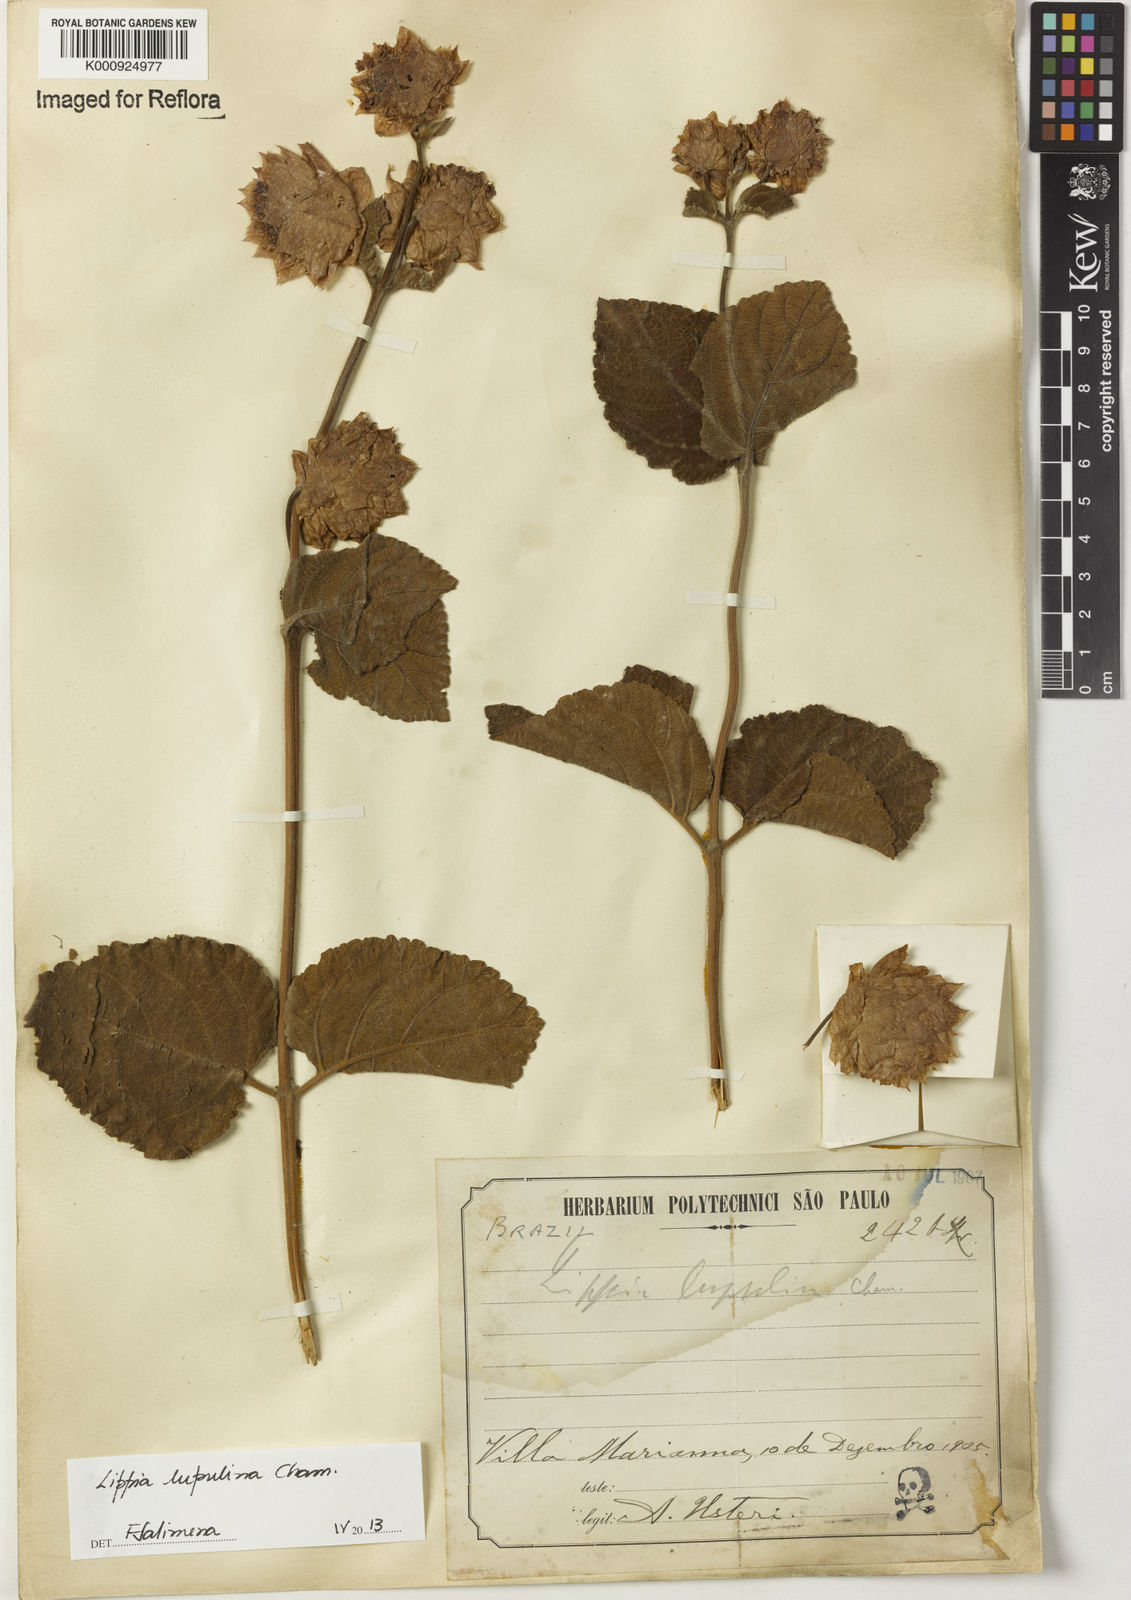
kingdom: Plantae
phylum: Tracheophyta
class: Magnoliopsida
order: Lamiales
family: Verbenaceae
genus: Lippia
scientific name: Lippia lupulina
